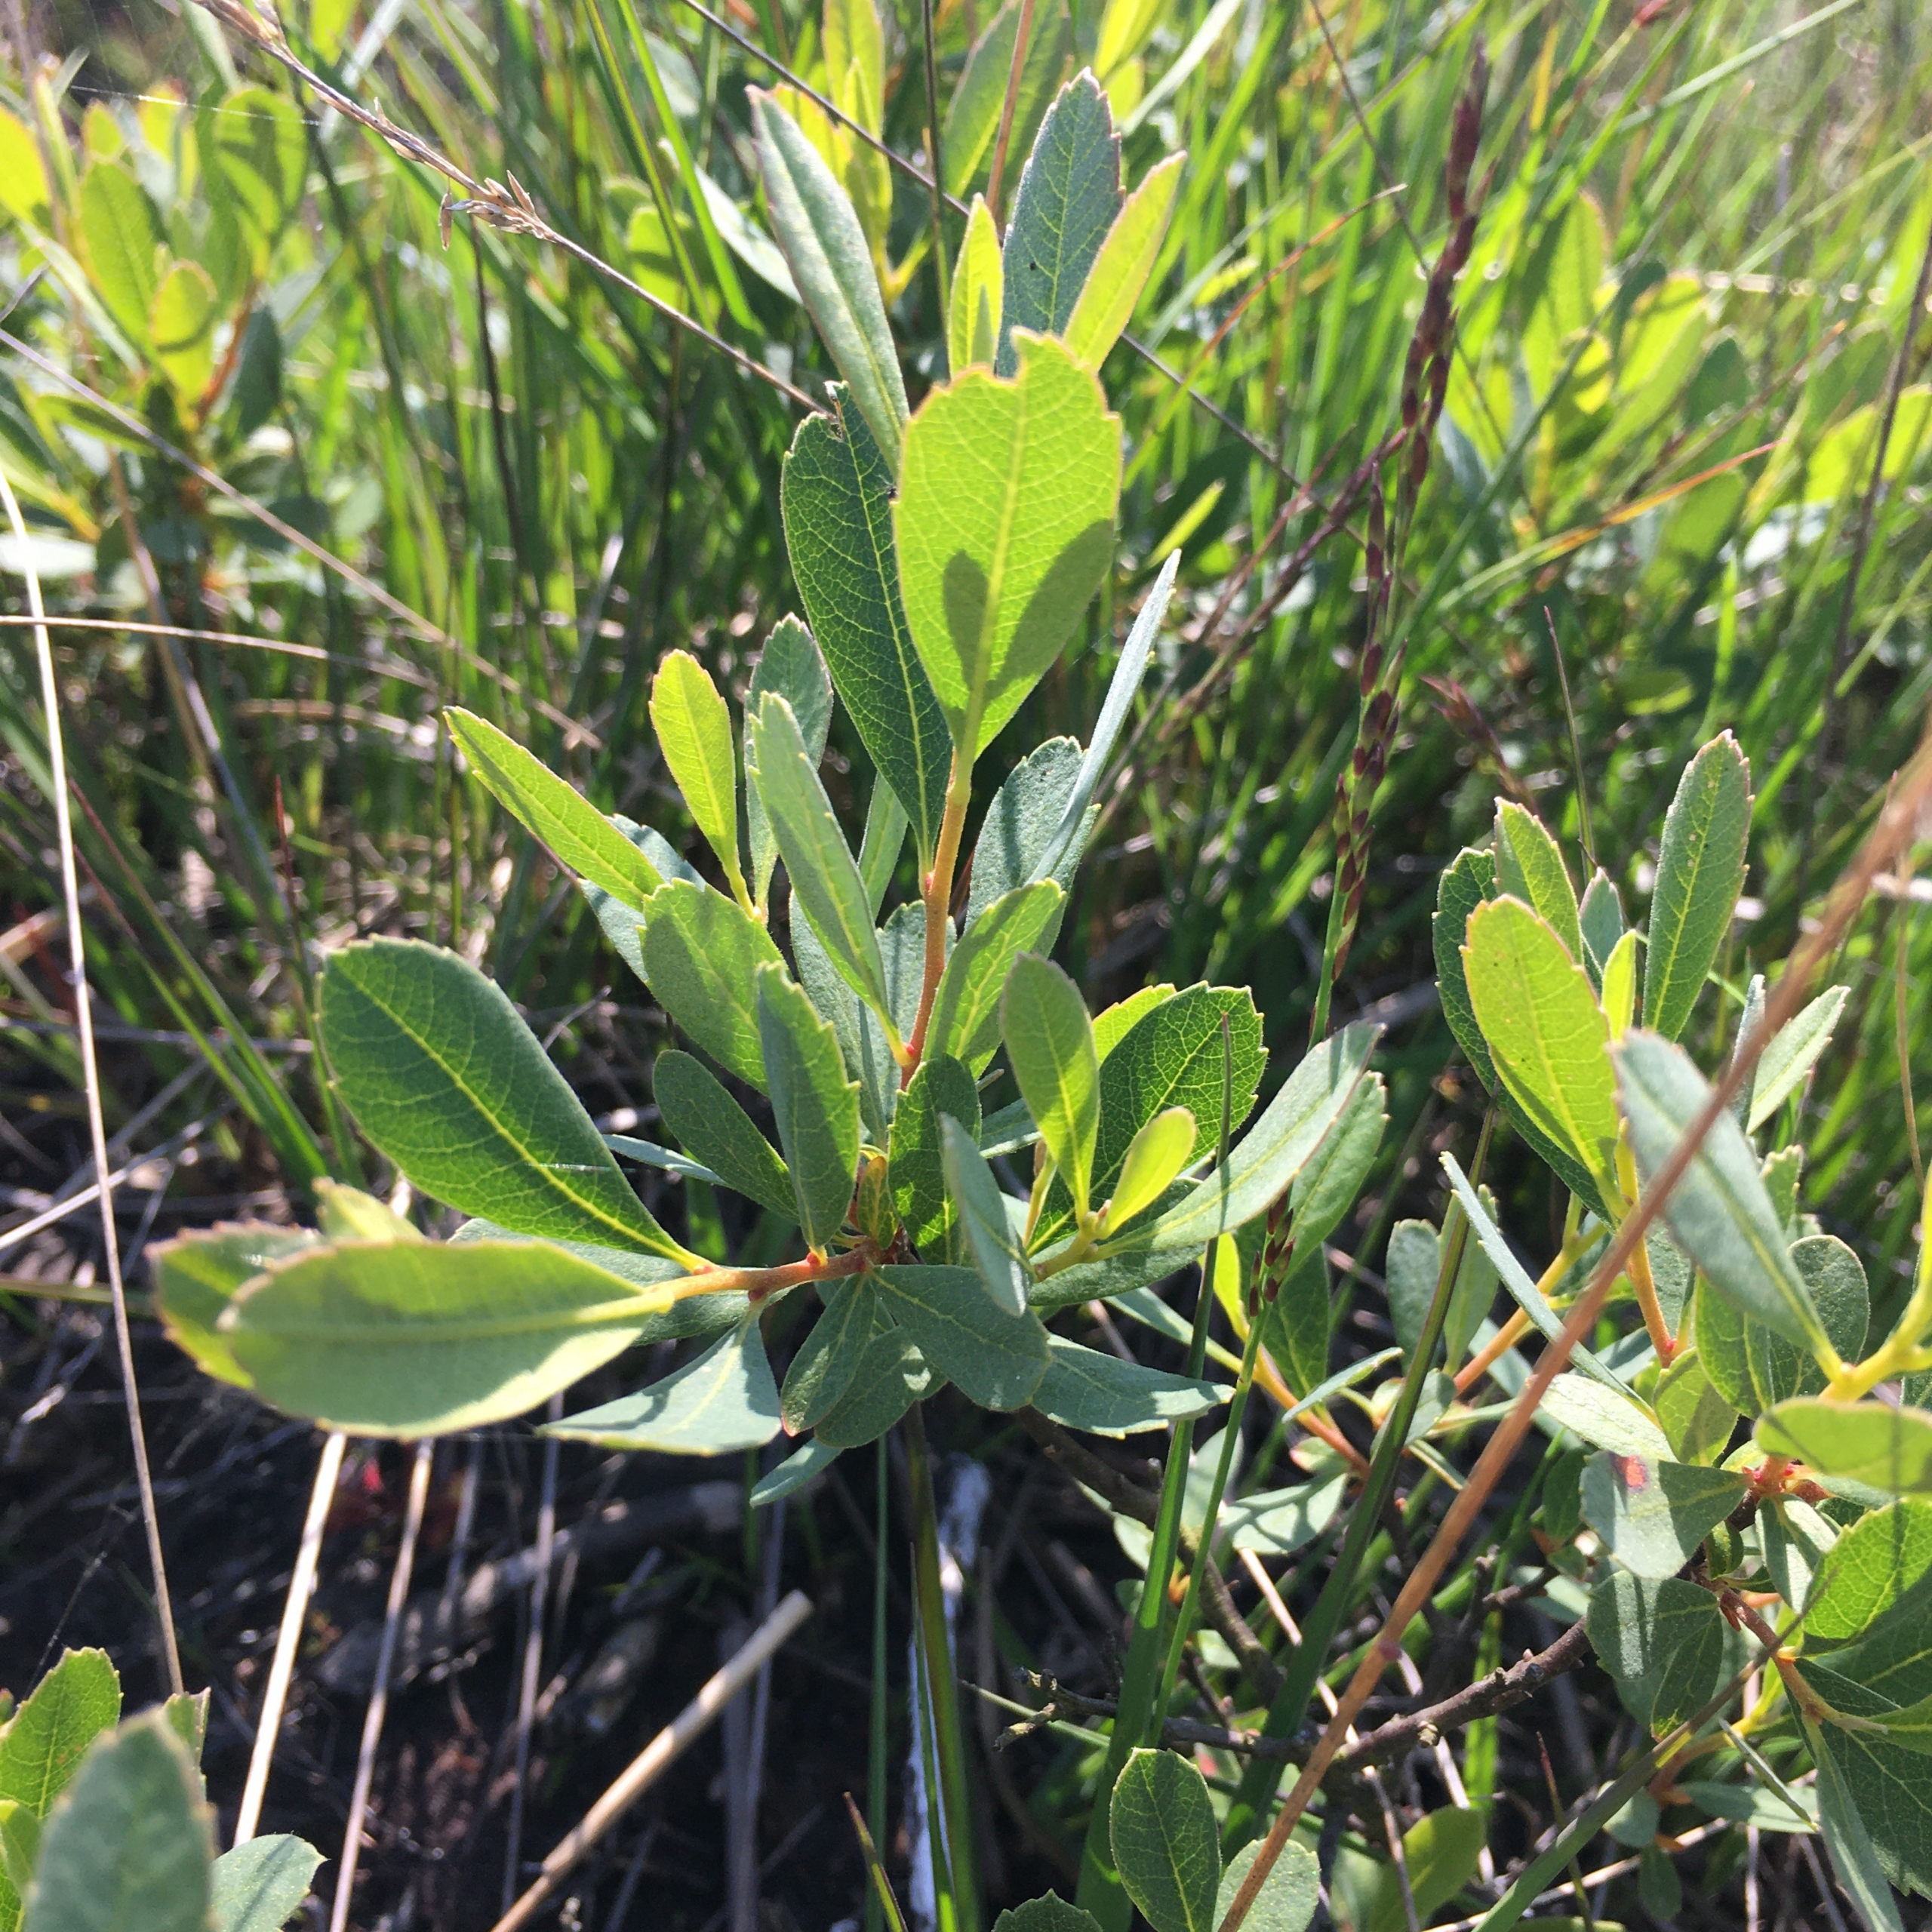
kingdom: Plantae
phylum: Tracheophyta
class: Magnoliopsida
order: Fagales
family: Myricaceae
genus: Myrica
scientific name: Myrica gale
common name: Pors
